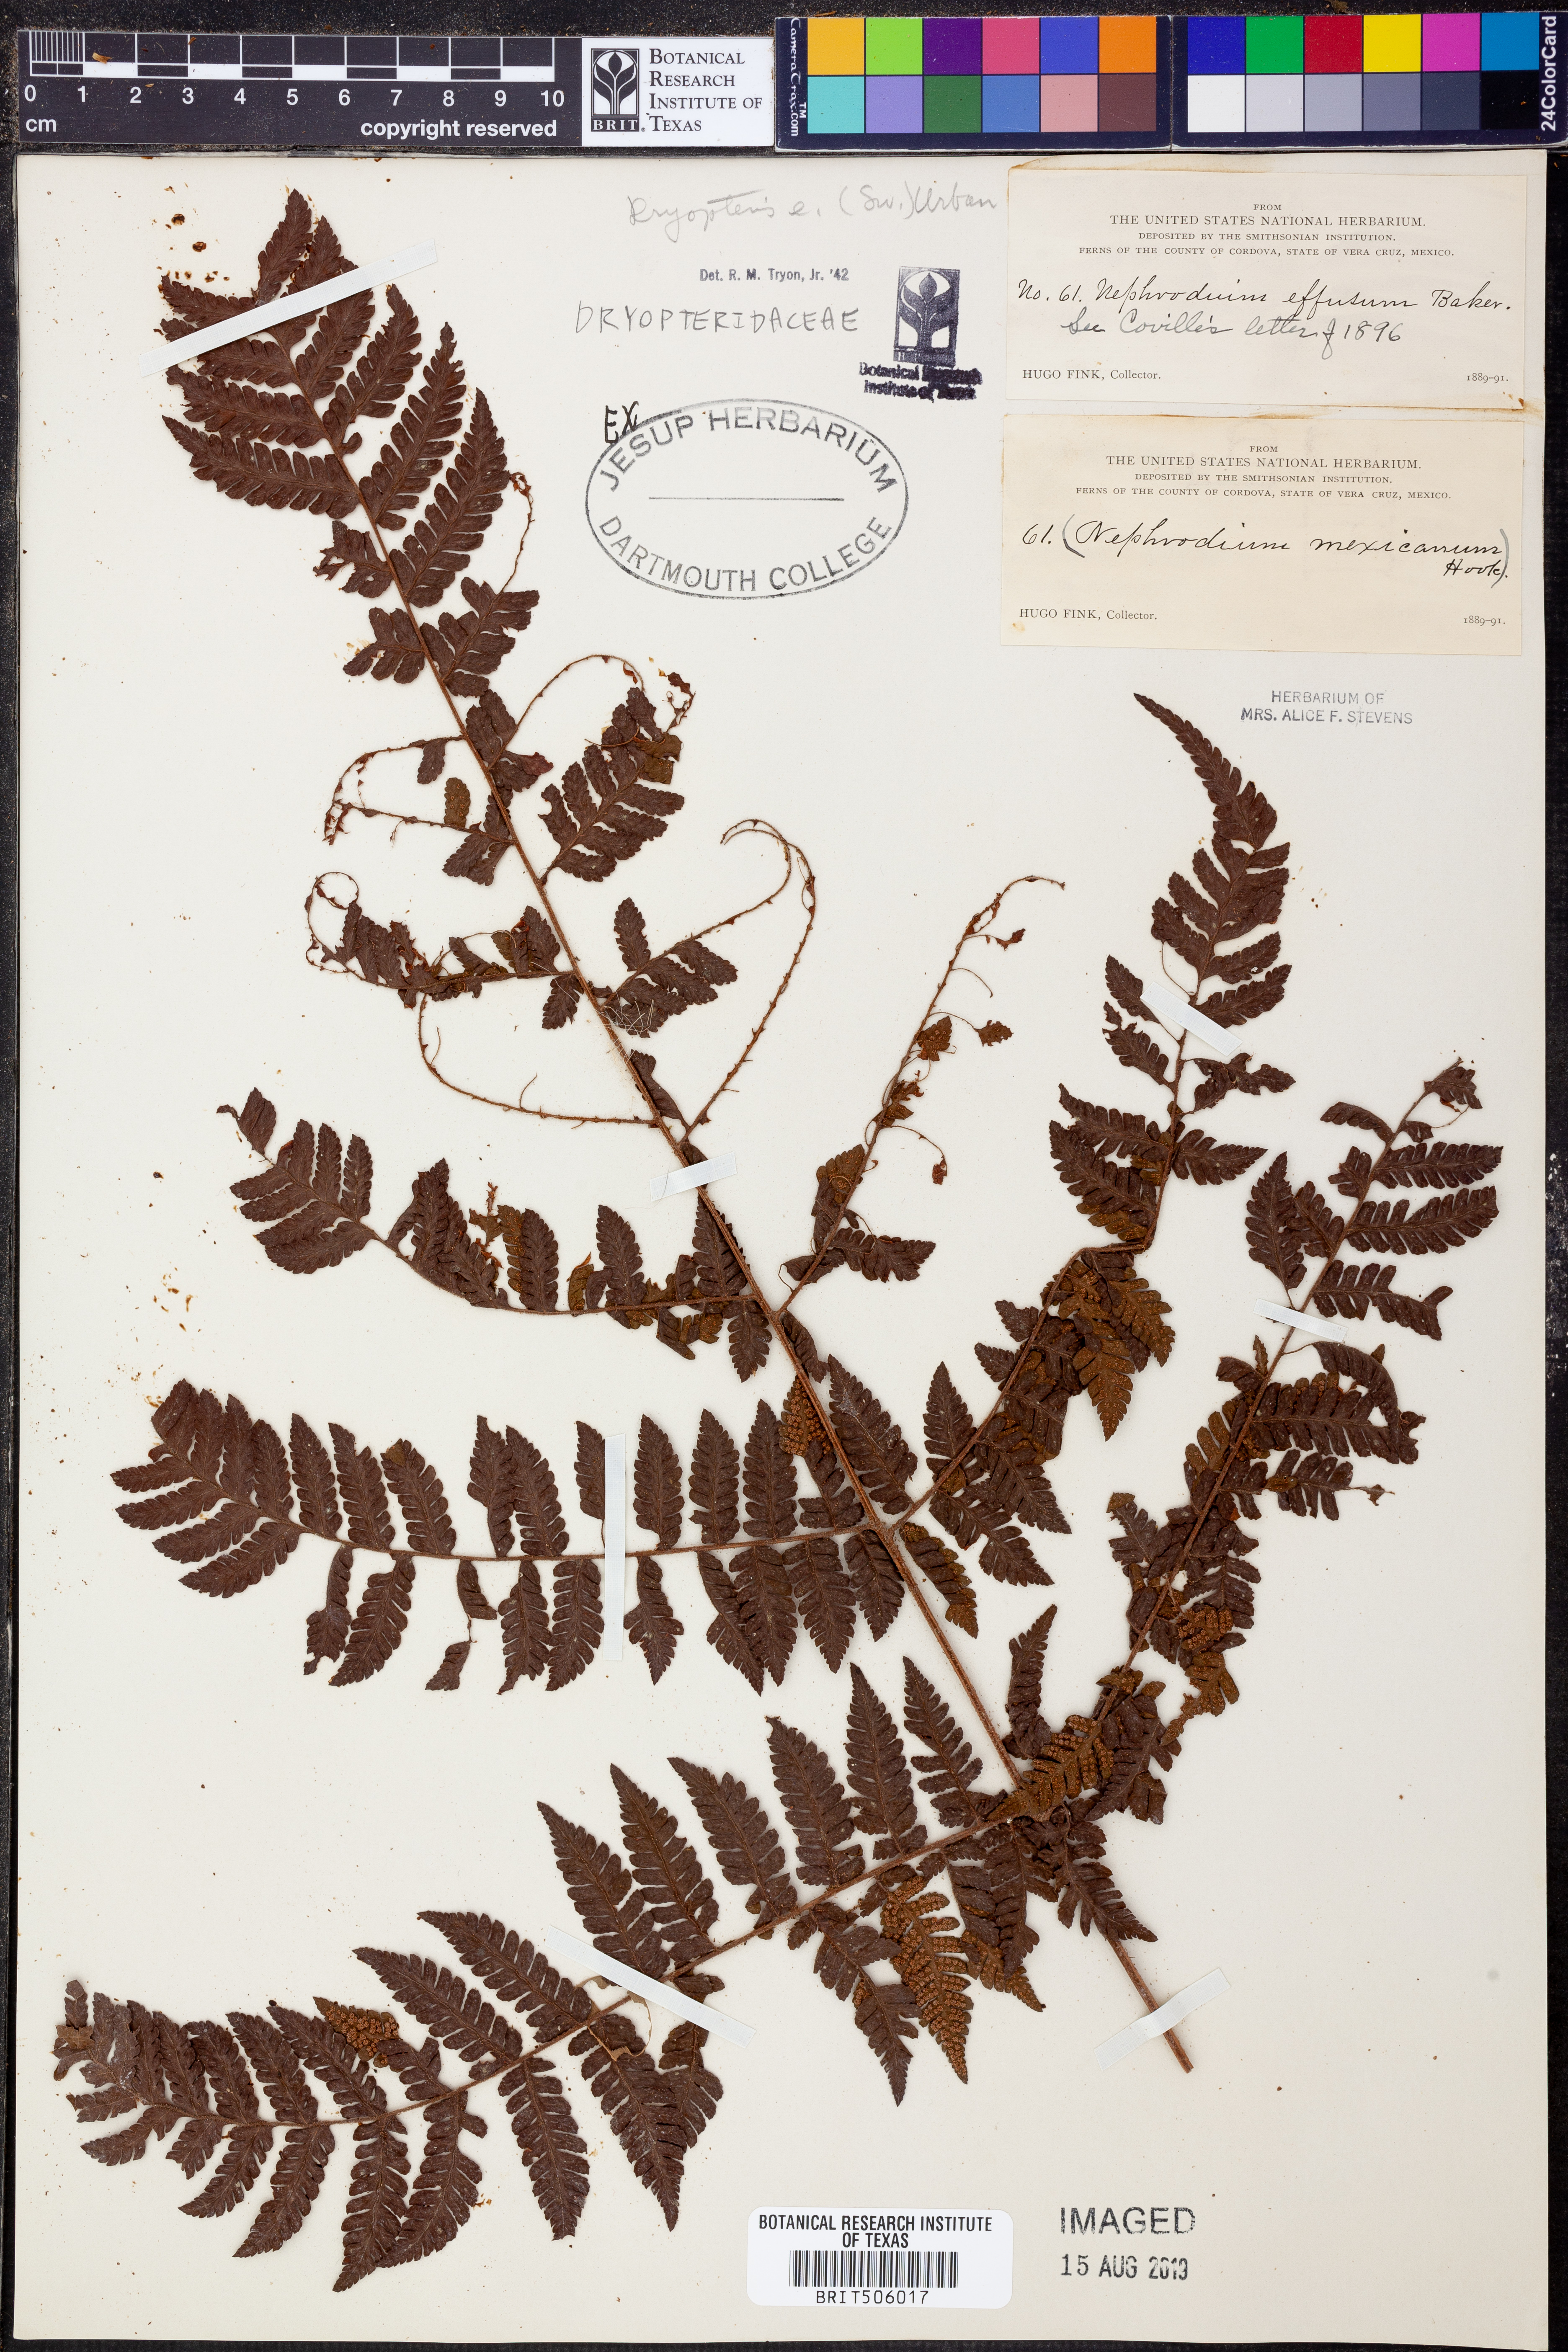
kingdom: Plantae
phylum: Tracheophyta
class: Polypodiopsida
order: Polypodiales
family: Dryopteridaceae
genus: Parapolystichum
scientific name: Parapolystichum effusum
